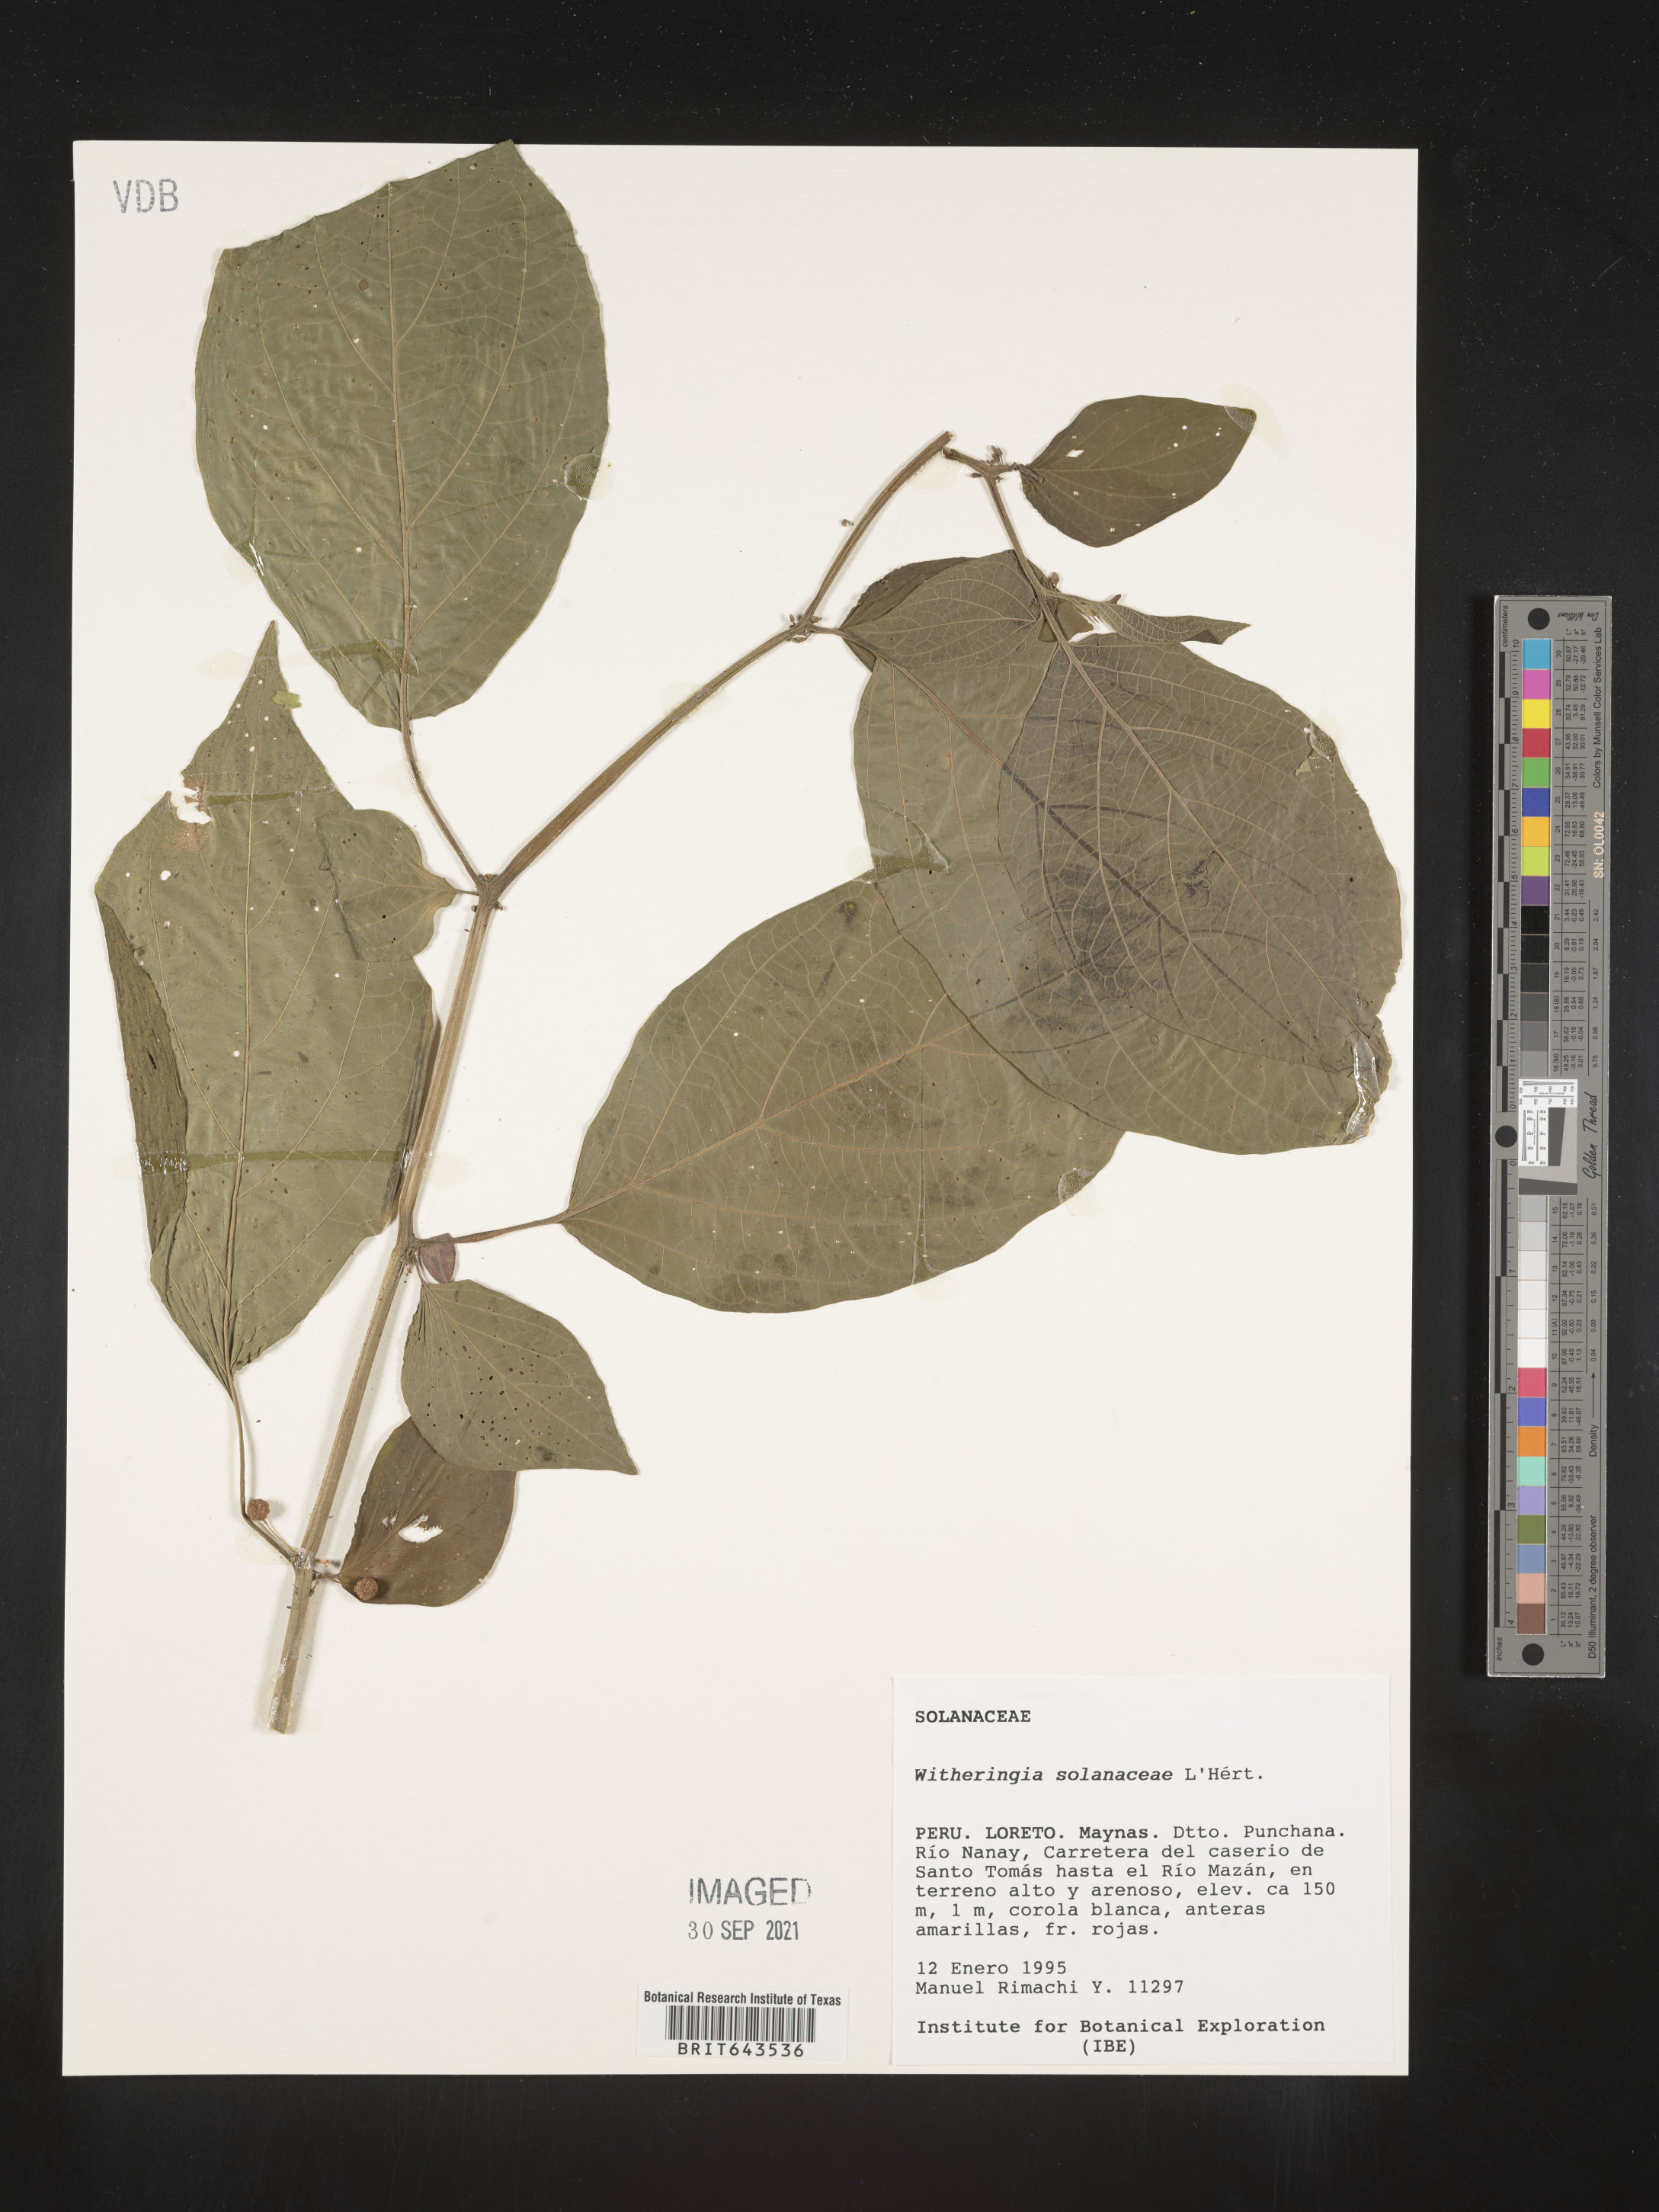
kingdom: Plantae
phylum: Tracheophyta
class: Magnoliopsida
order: Solanales
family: Solanaceae
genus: Witheringia
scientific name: Witheringia
